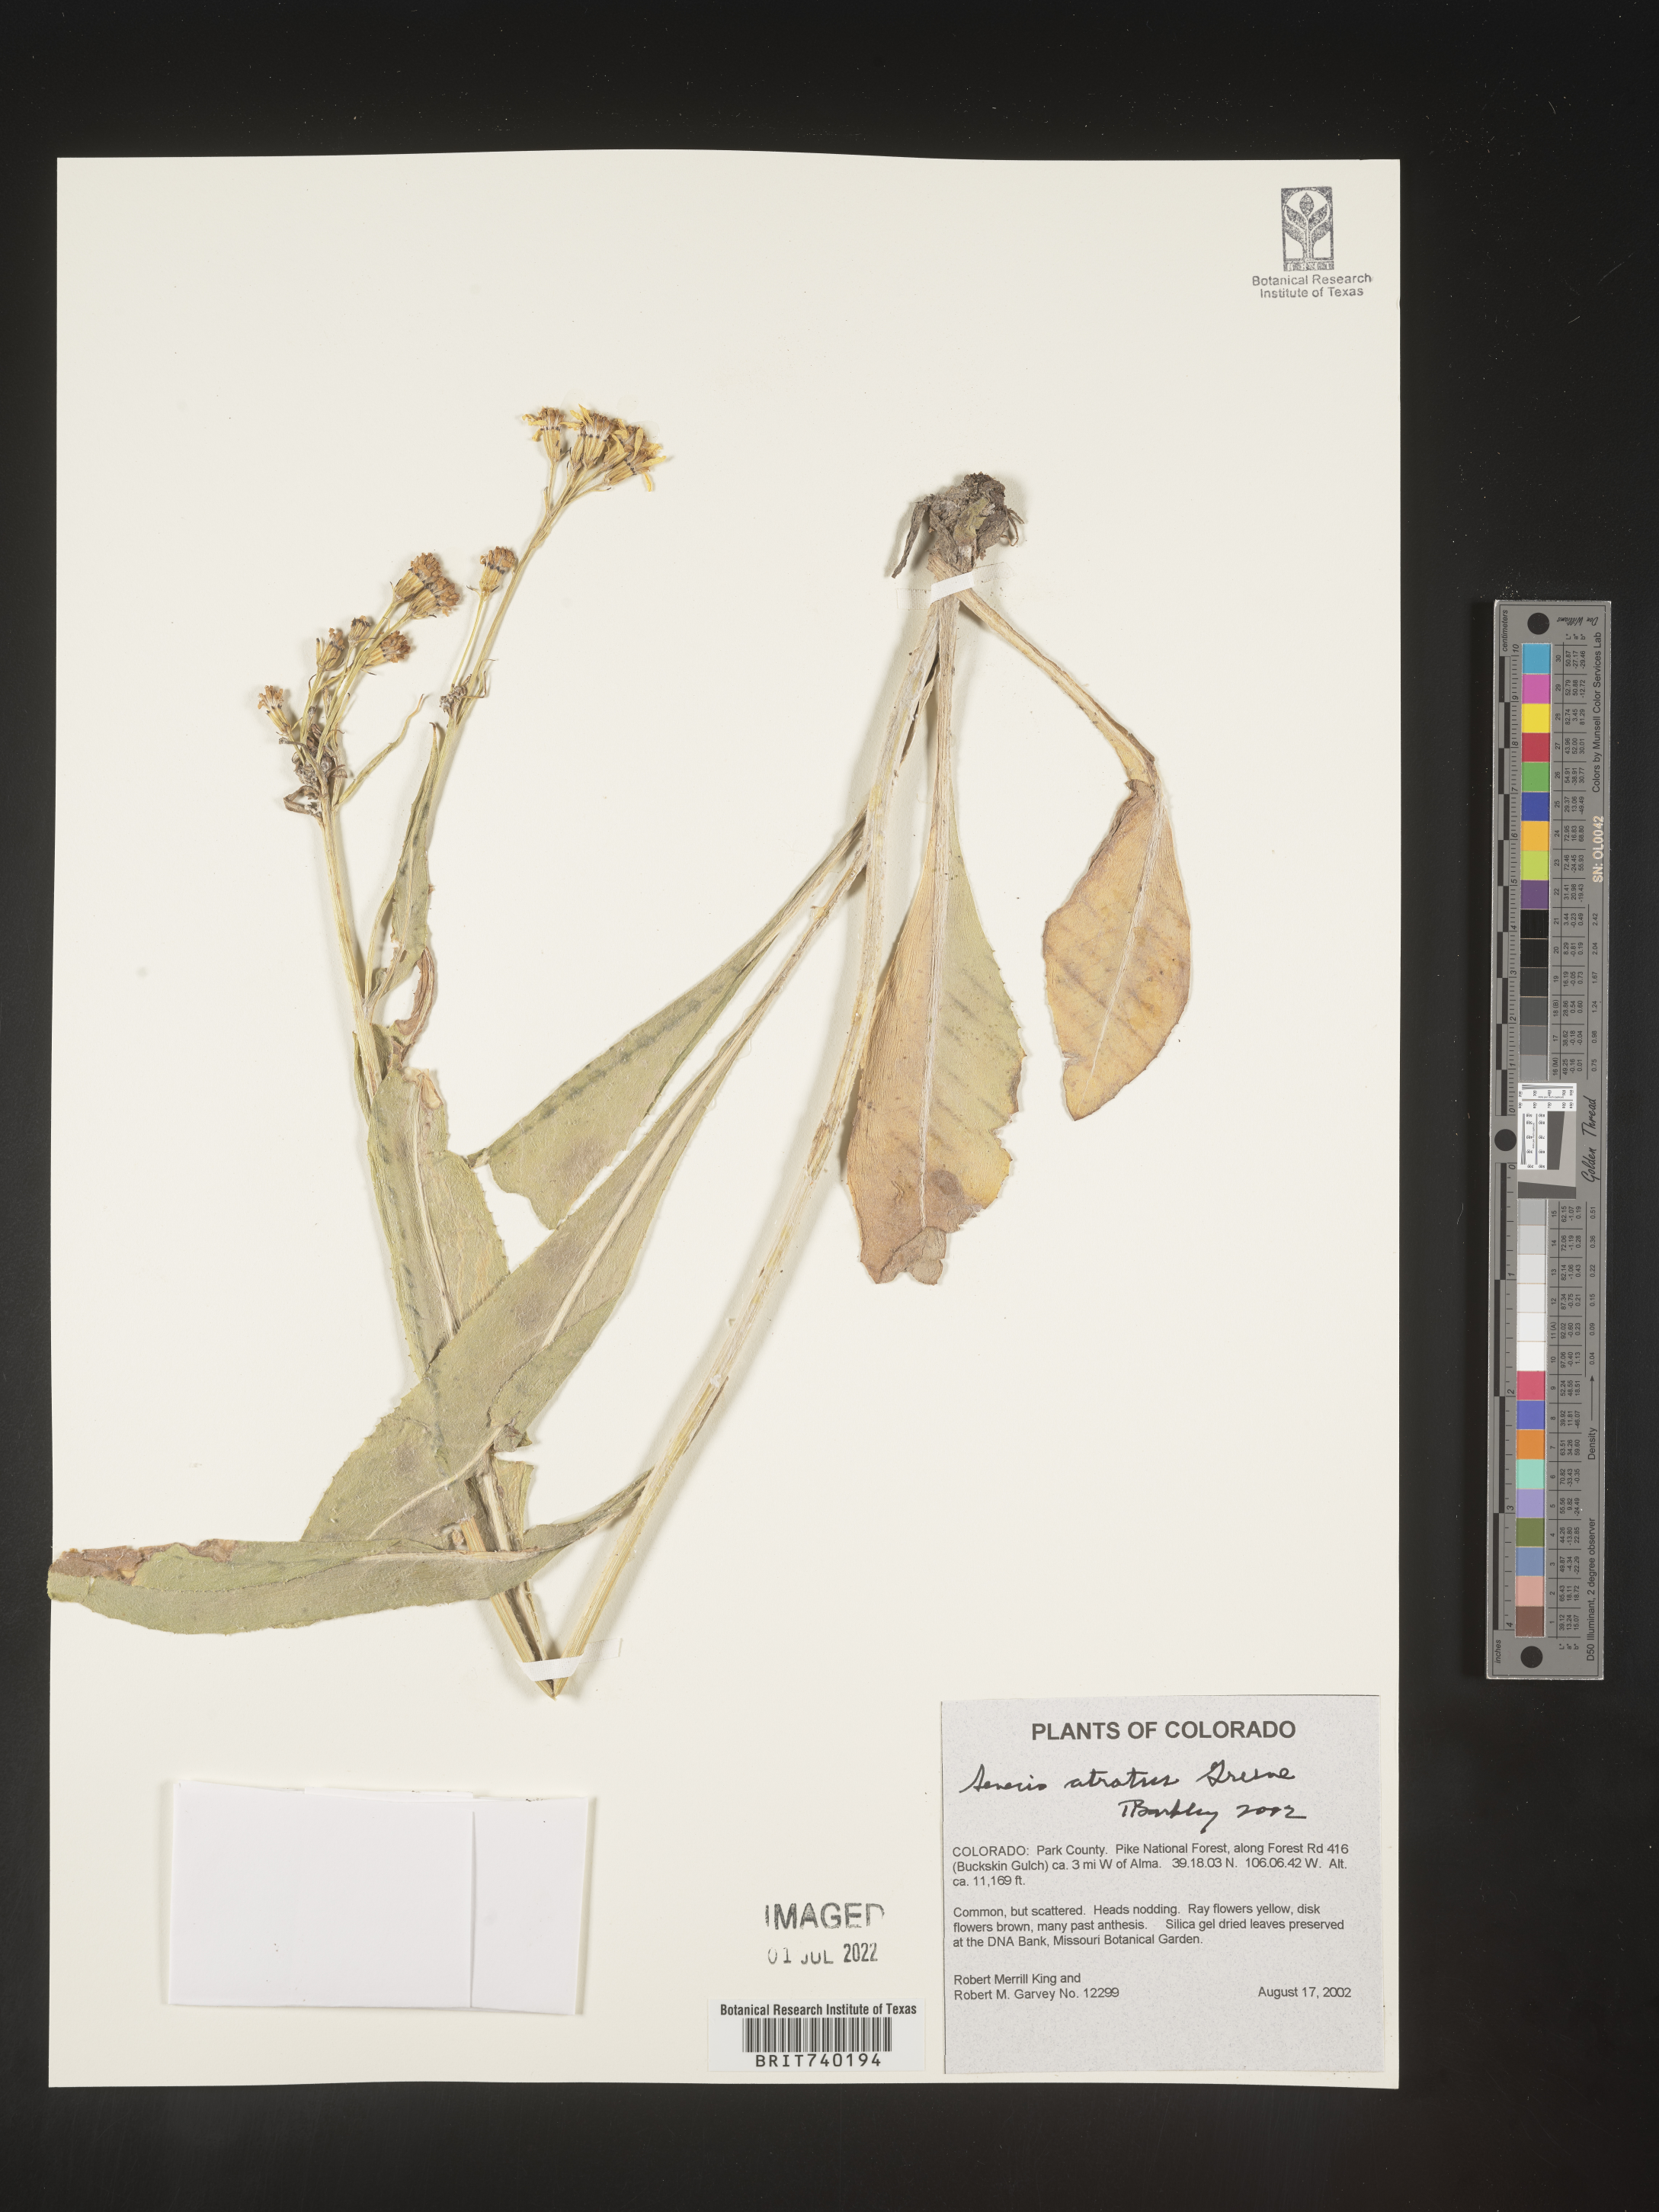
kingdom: Plantae
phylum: Tracheophyta
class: Magnoliopsida
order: Asterales
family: Asteraceae
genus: Senecio
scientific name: Senecio atratus
